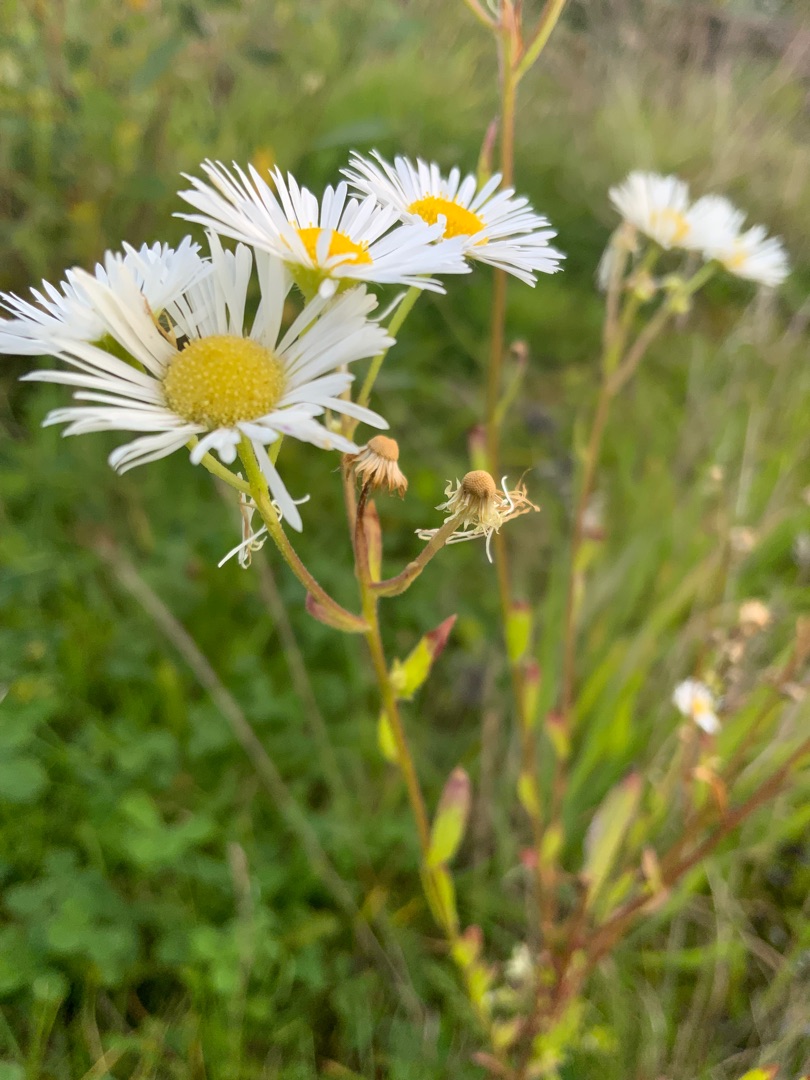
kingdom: Plantae
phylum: Tracheophyta
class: Magnoliopsida
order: Asterales
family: Asteraceae
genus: Erigeron
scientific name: Erigeron annuus
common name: Smalstråle
